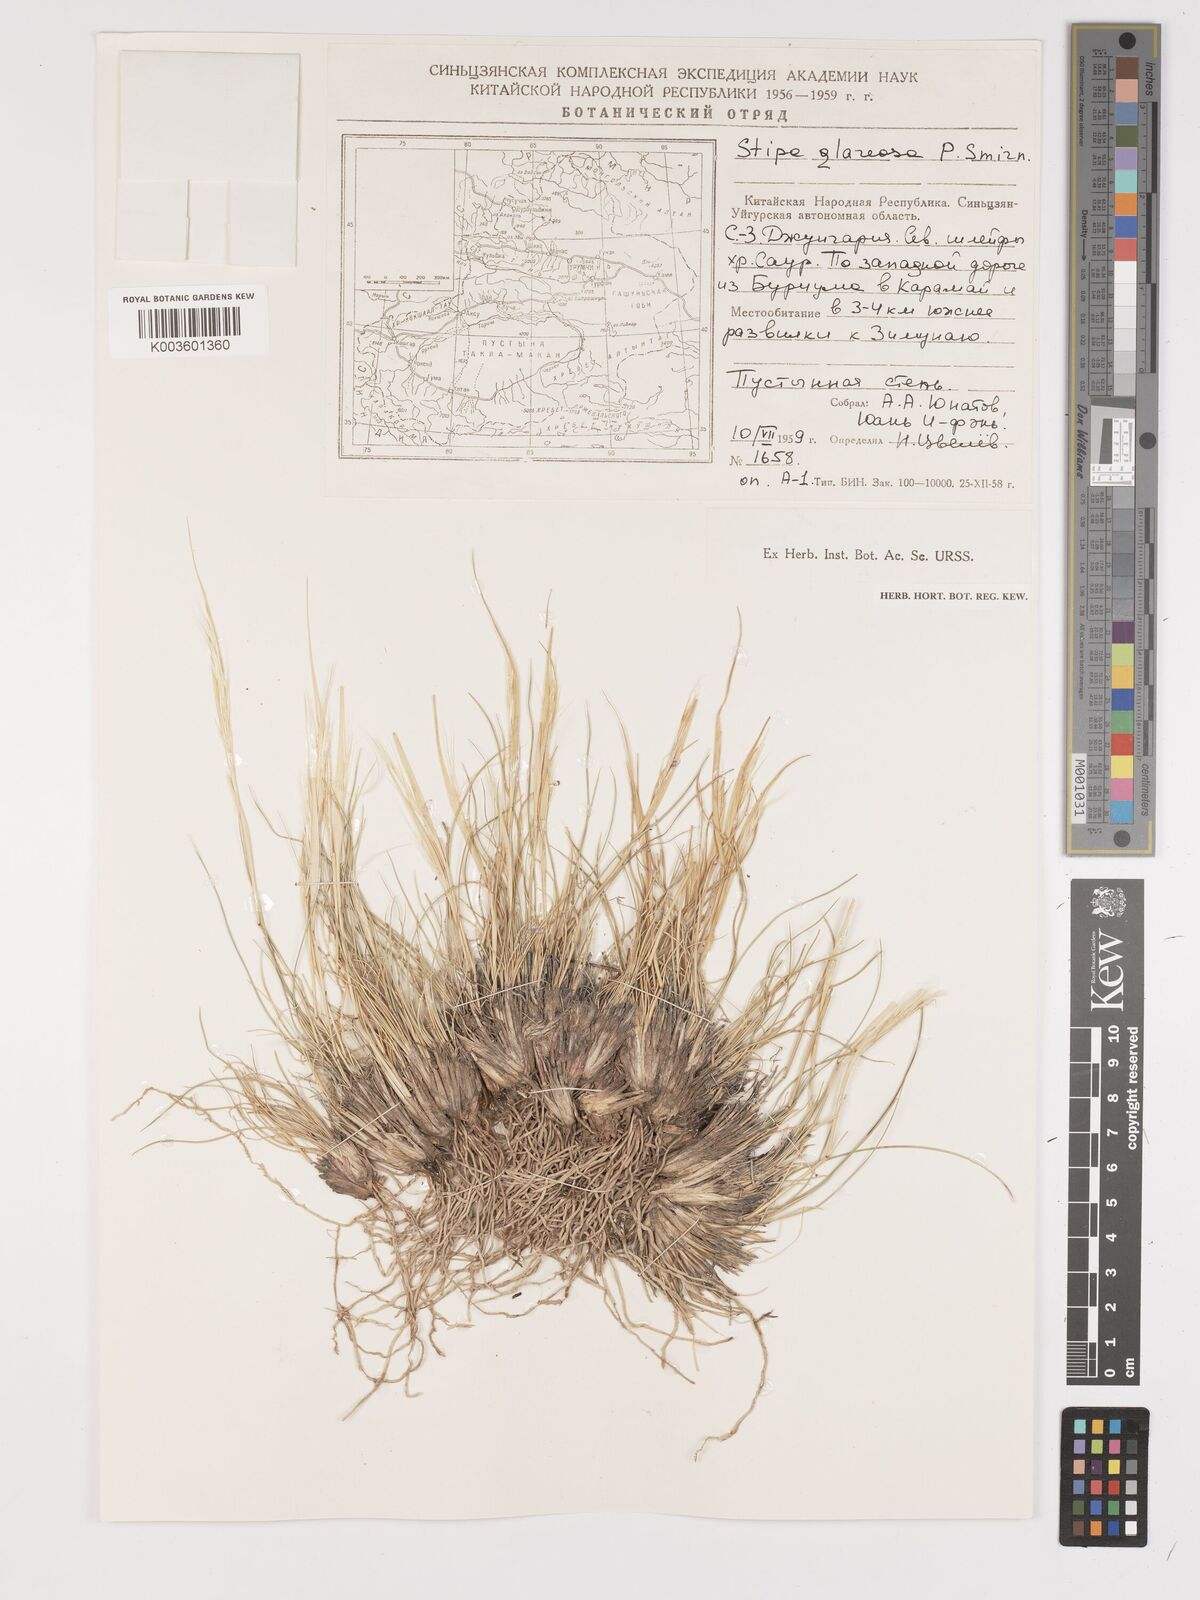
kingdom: Plantae
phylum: Tracheophyta
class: Liliopsida
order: Poales
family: Poaceae
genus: Stipa
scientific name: Stipa glareosa
